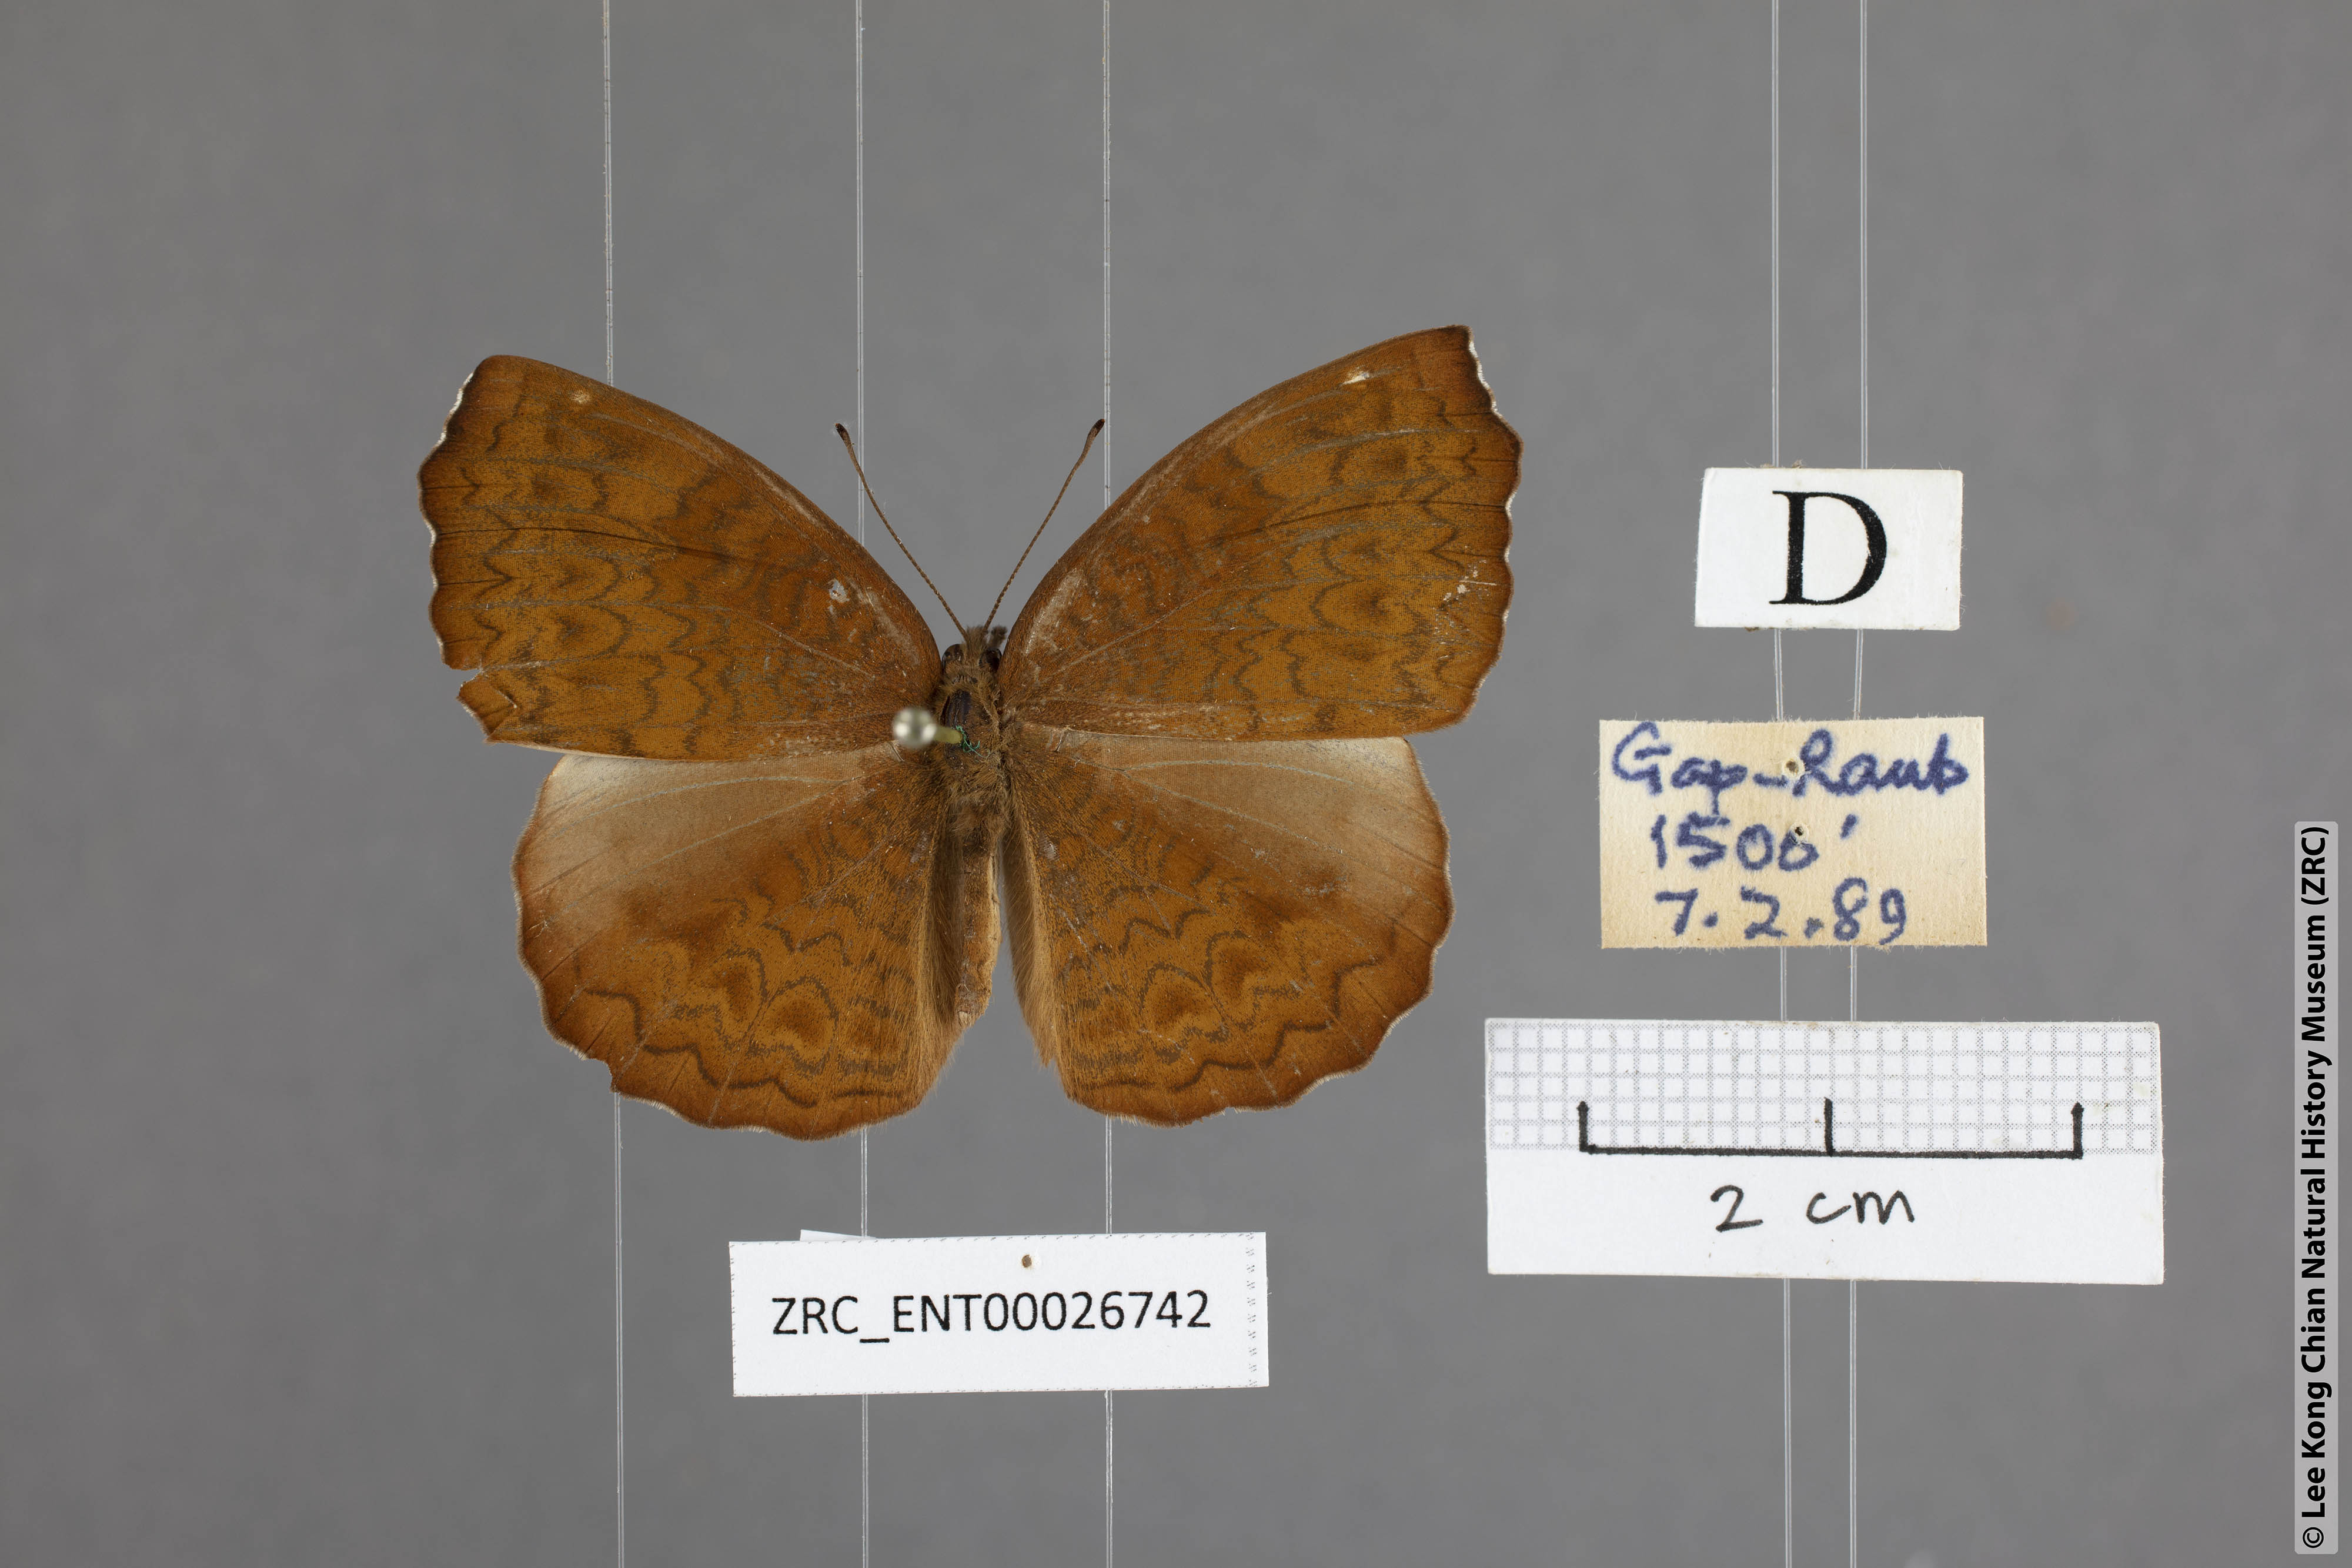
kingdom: Animalia
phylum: Arthropoda
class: Insecta
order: Lepidoptera
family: Nymphalidae
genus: Ariadne
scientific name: Ariadne merione
